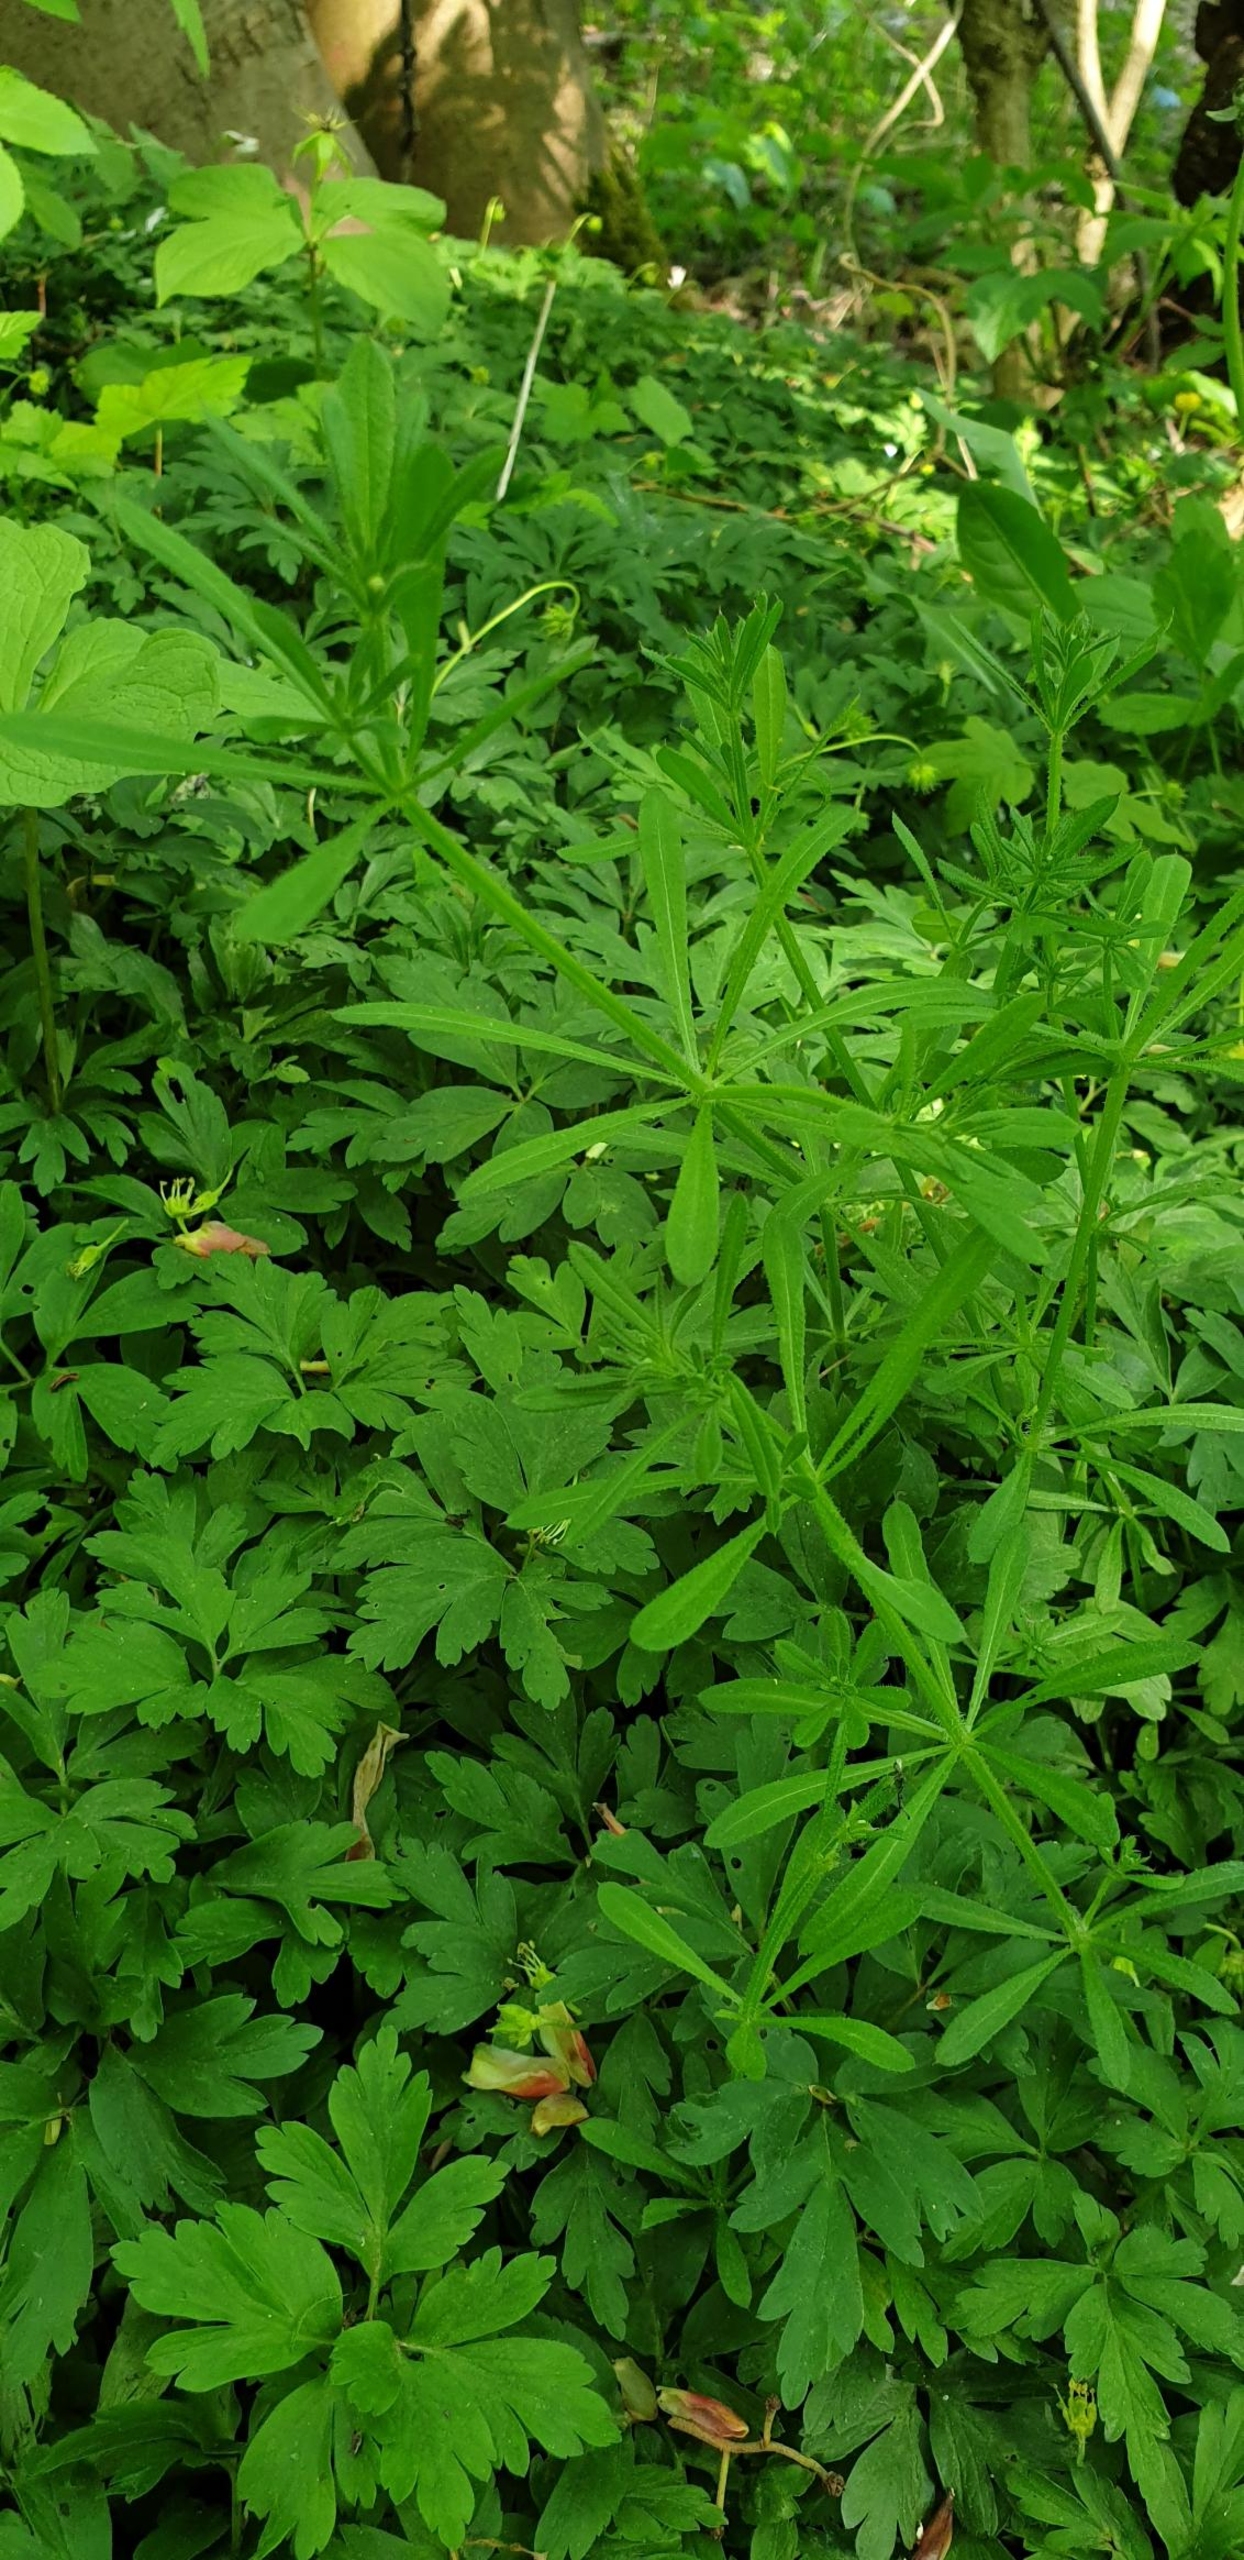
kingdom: Plantae
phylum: Tracheophyta
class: Magnoliopsida
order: Gentianales
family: Rubiaceae
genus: Galium
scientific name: Galium aparine
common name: Burre-snerre
